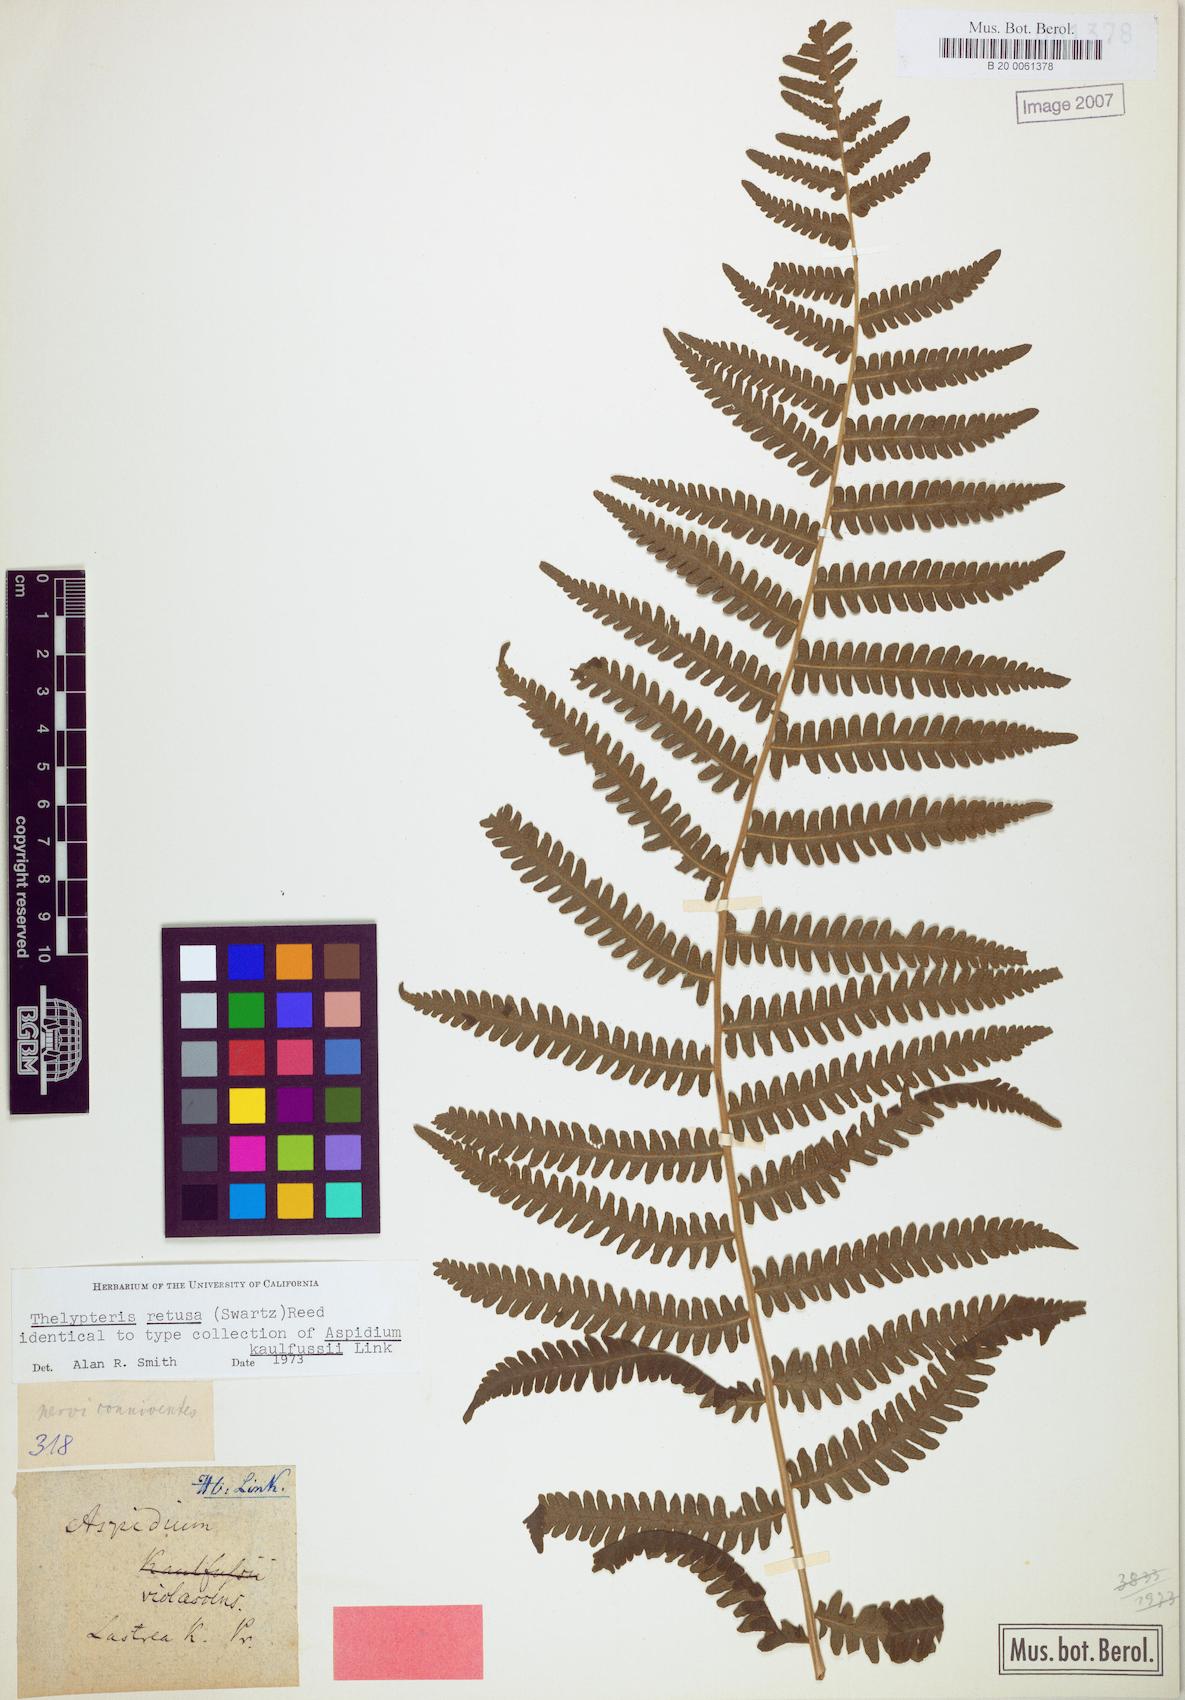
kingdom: Plantae
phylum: Tracheophyta
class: Polypodiopsida
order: Polypodiales
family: Thelypteridaceae
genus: Amauropelta
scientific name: Amauropelta raddii
